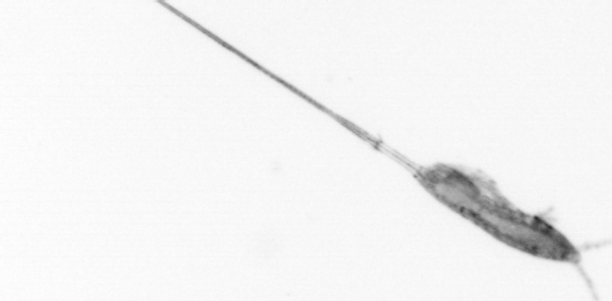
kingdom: Animalia
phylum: Arthropoda
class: Copepoda
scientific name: Copepoda
